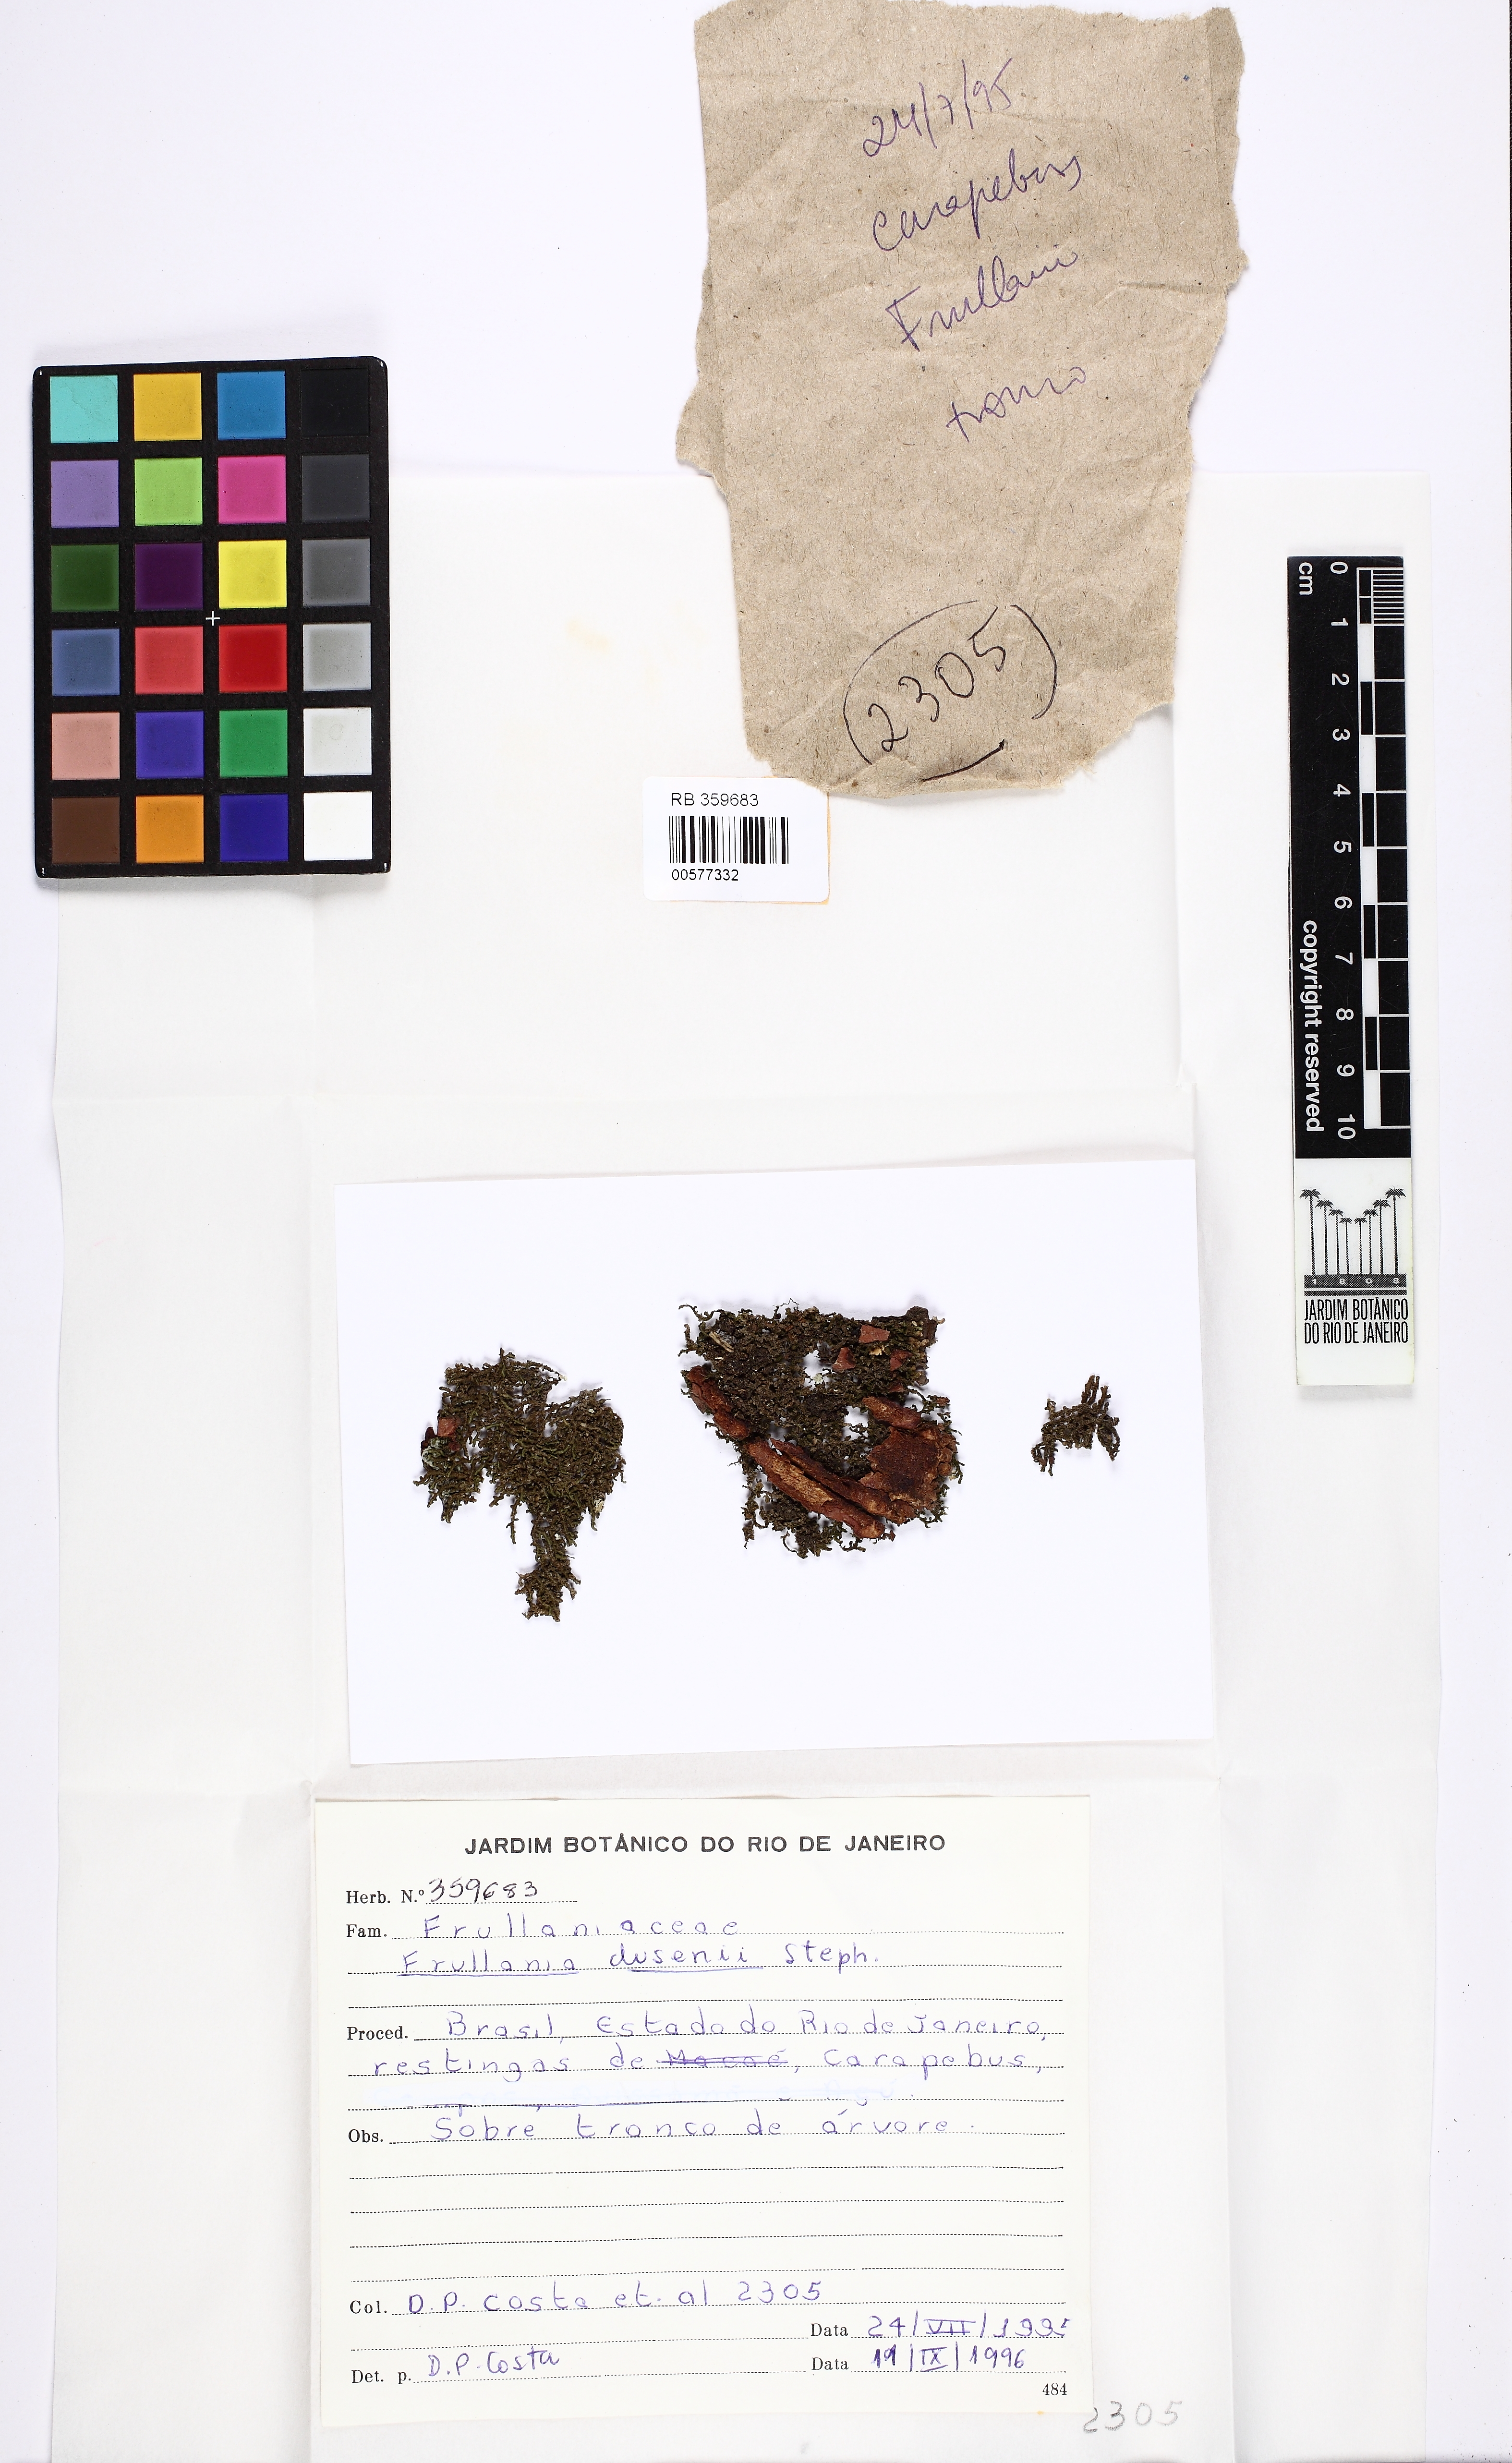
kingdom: Plantae
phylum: Marchantiophyta
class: Jungermanniopsida
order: Porellales
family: Frullaniaceae
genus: Frullania
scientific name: Frullania dusenii
